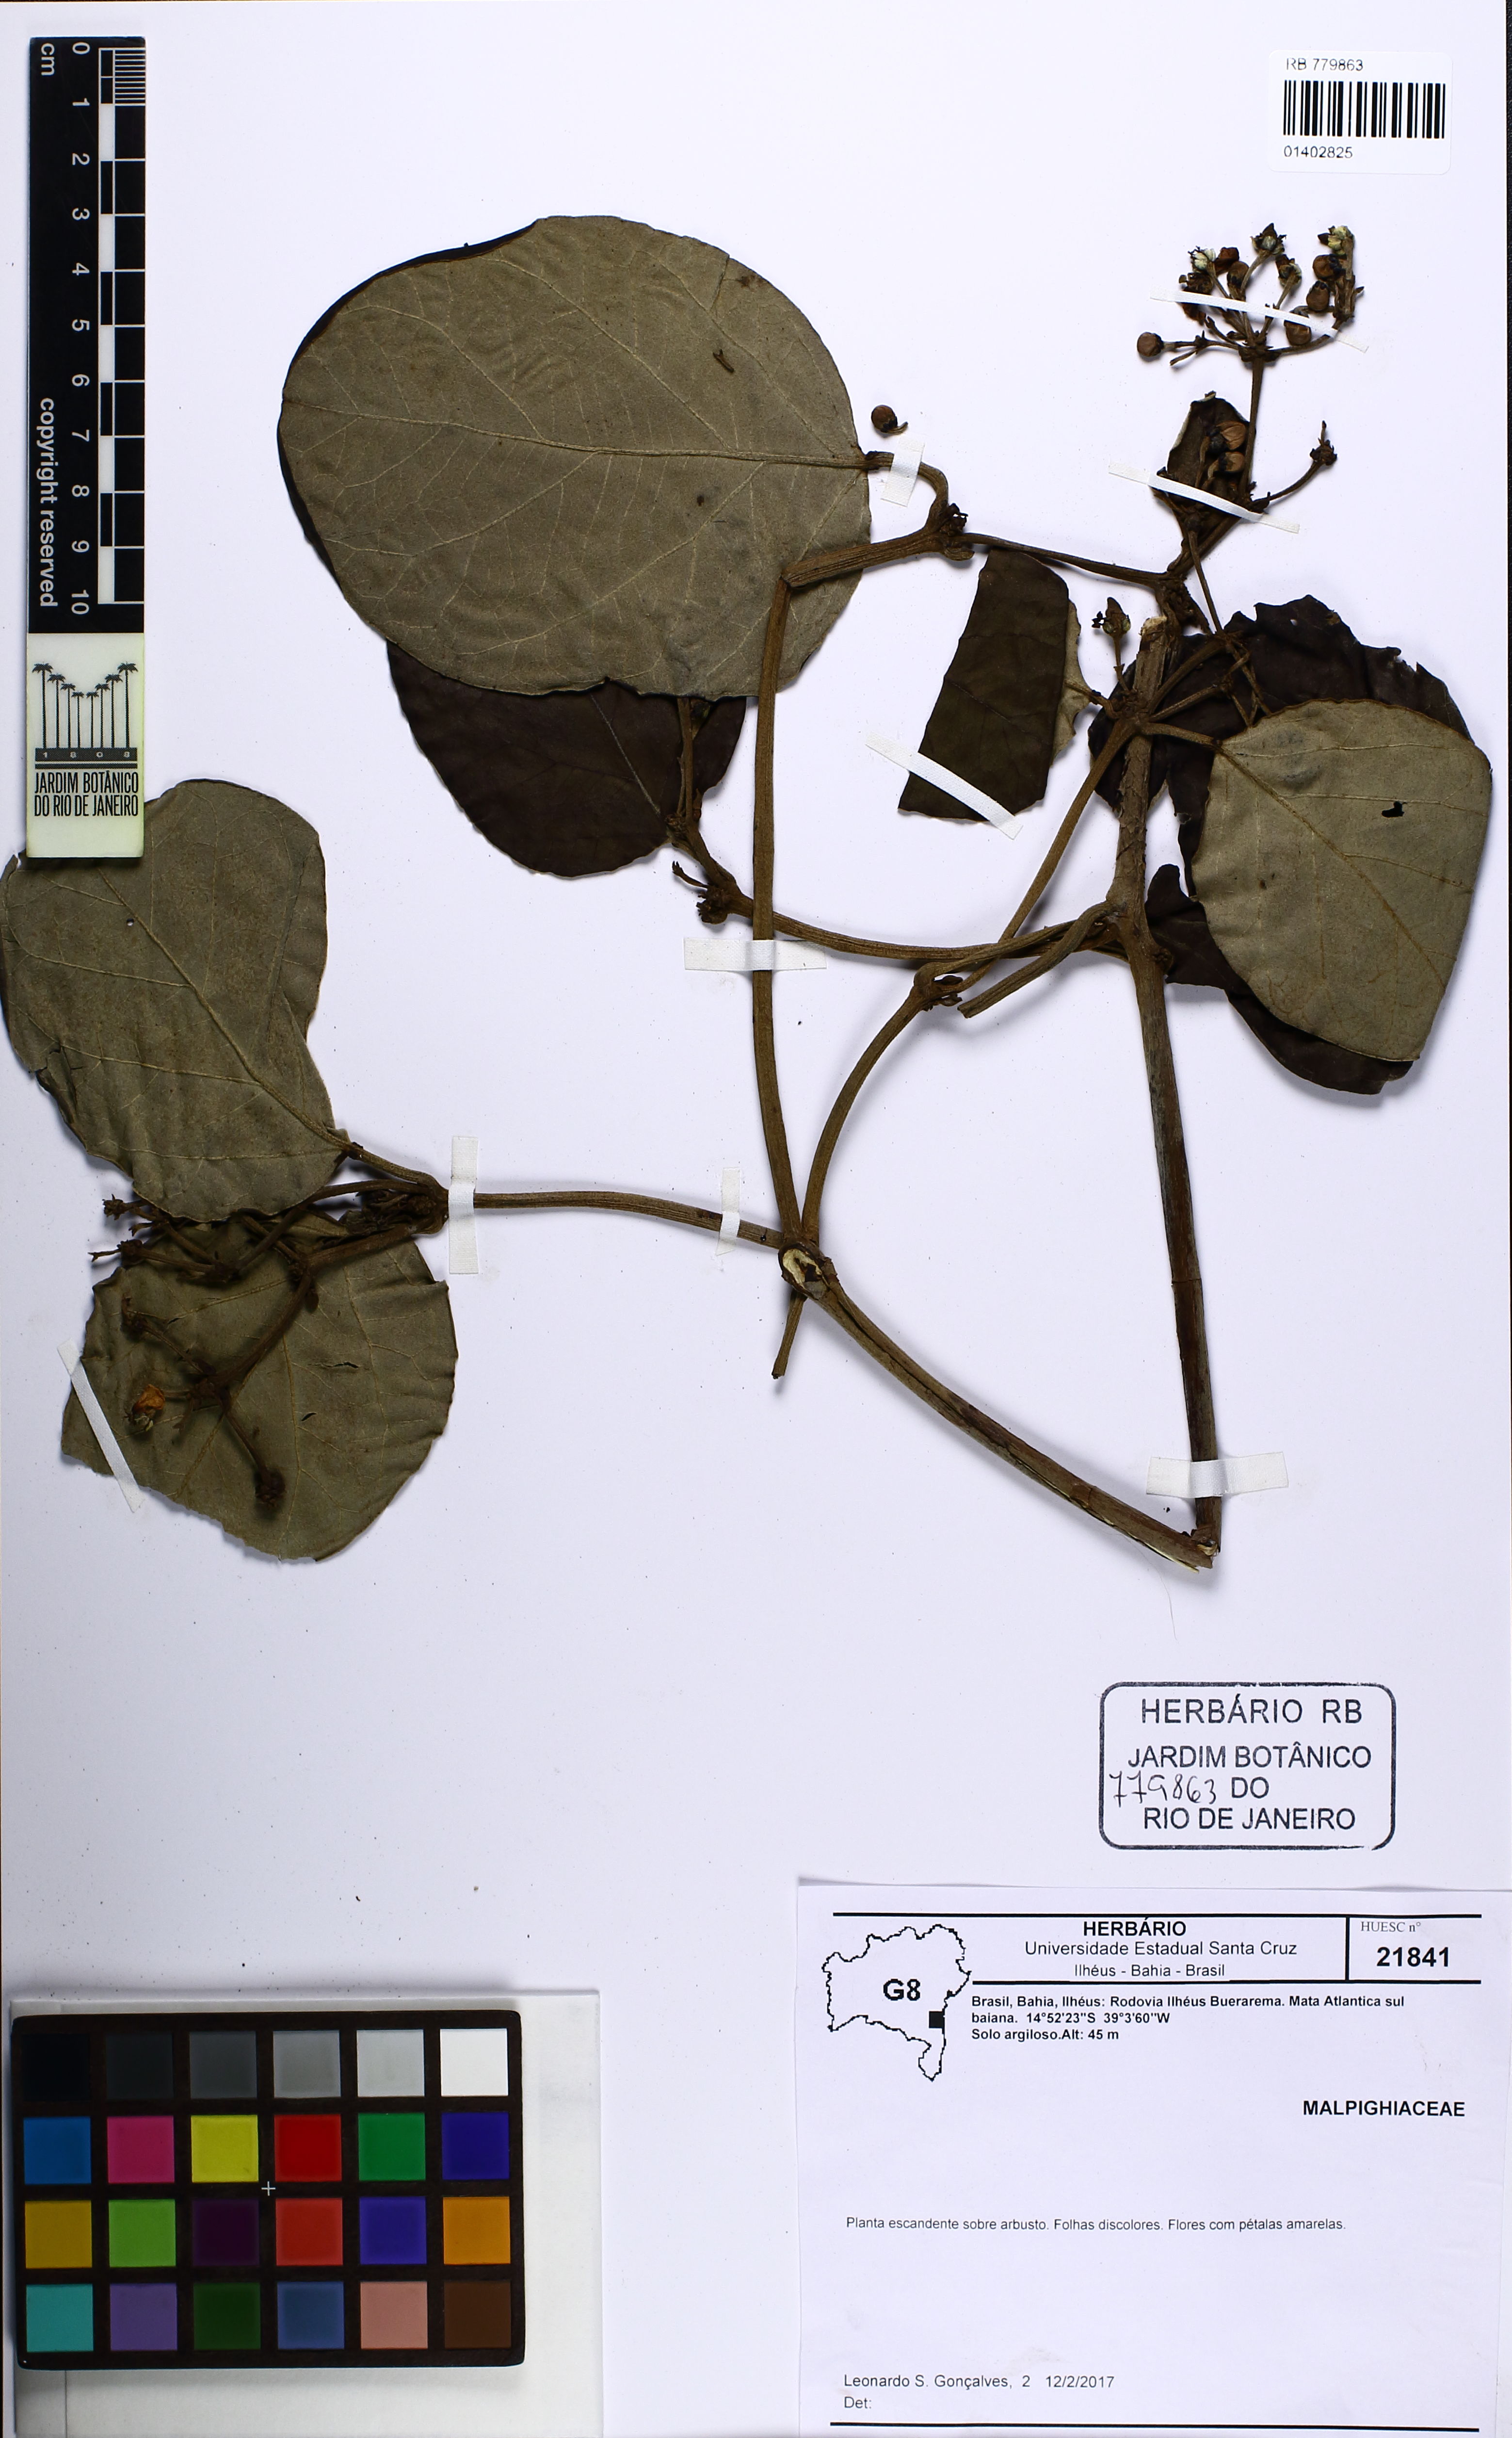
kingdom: Plantae
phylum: Tracheophyta
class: Magnoliopsida
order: Malpighiales
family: Malpighiaceae
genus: Stigmaphyllon
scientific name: Stigmaphyllon
